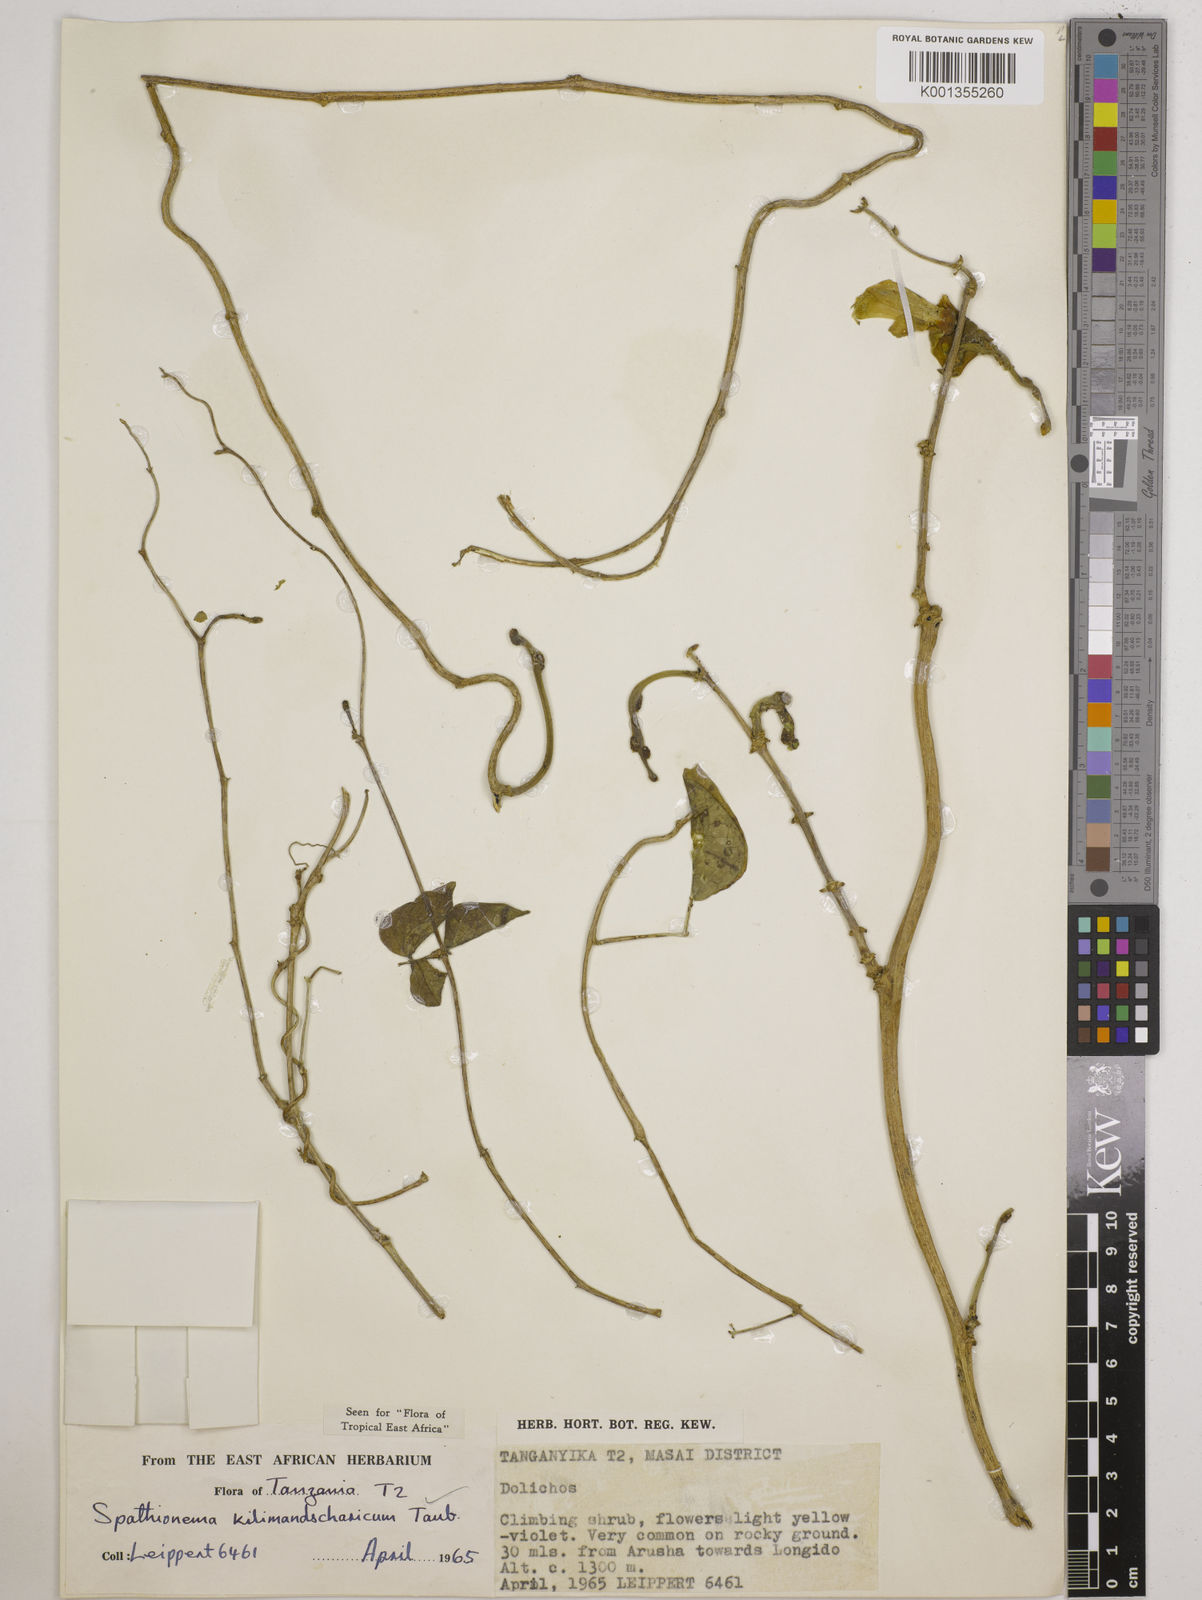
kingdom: Plantae
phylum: Tracheophyta
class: Magnoliopsida
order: Fabales
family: Fabaceae
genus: Spathionema
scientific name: Spathionema kilimandscharicum
